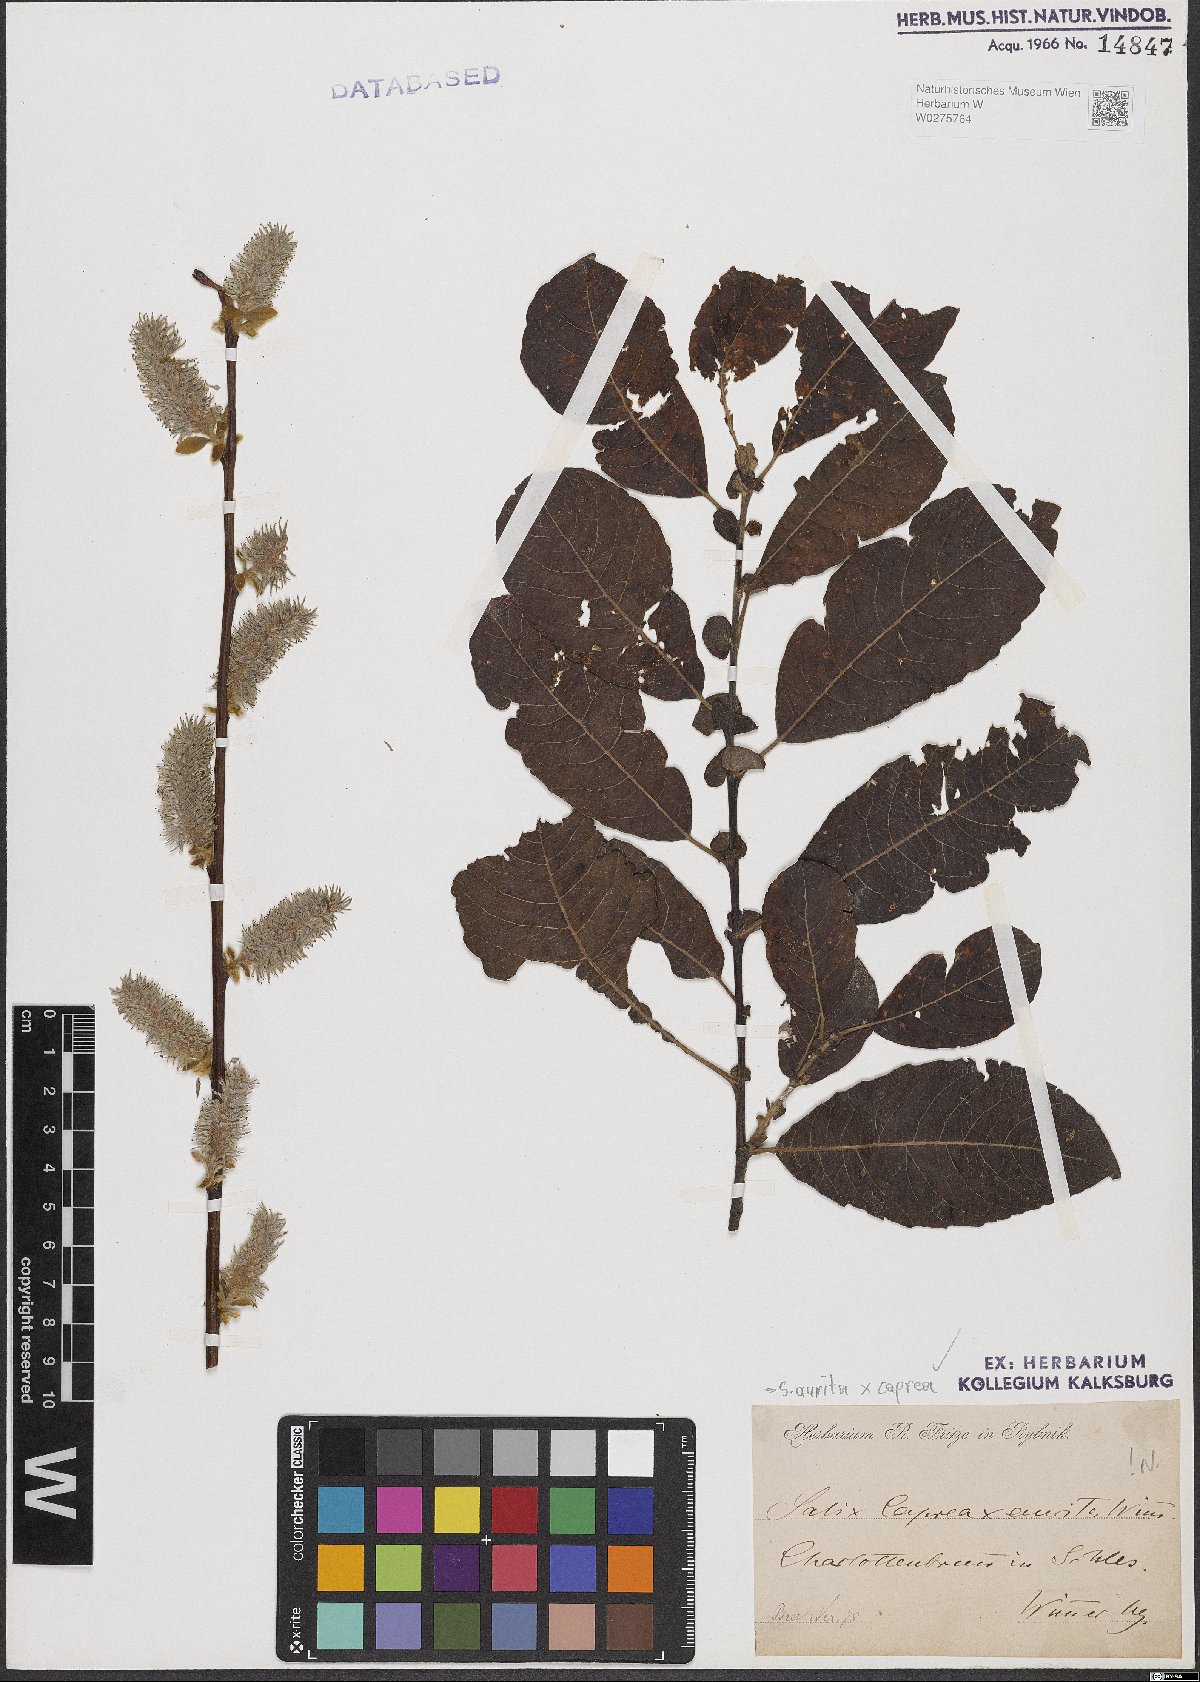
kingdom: Plantae
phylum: Tracheophyta
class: Magnoliopsida
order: Malpighiales
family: Salicaceae
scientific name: Salicaceae
